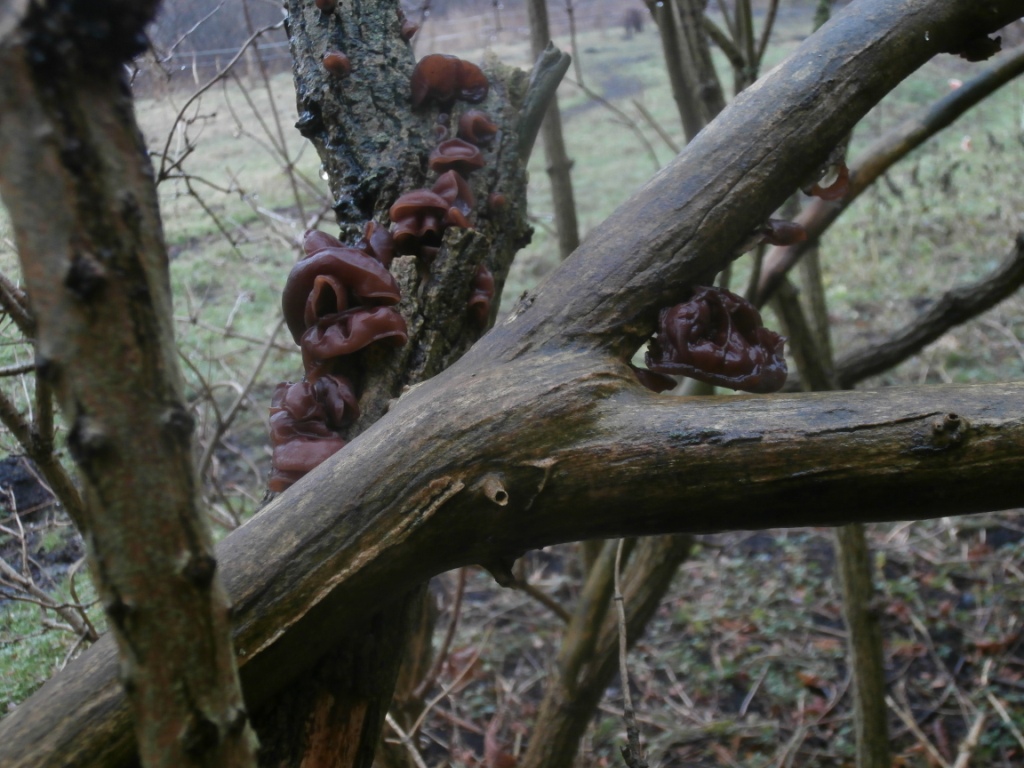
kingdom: Fungi
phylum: Basidiomycota
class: Agaricomycetes
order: Auriculariales
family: Auriculariaceae
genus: Auricularia
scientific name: Auricularia auricula-judae
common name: almindelig judasøre
